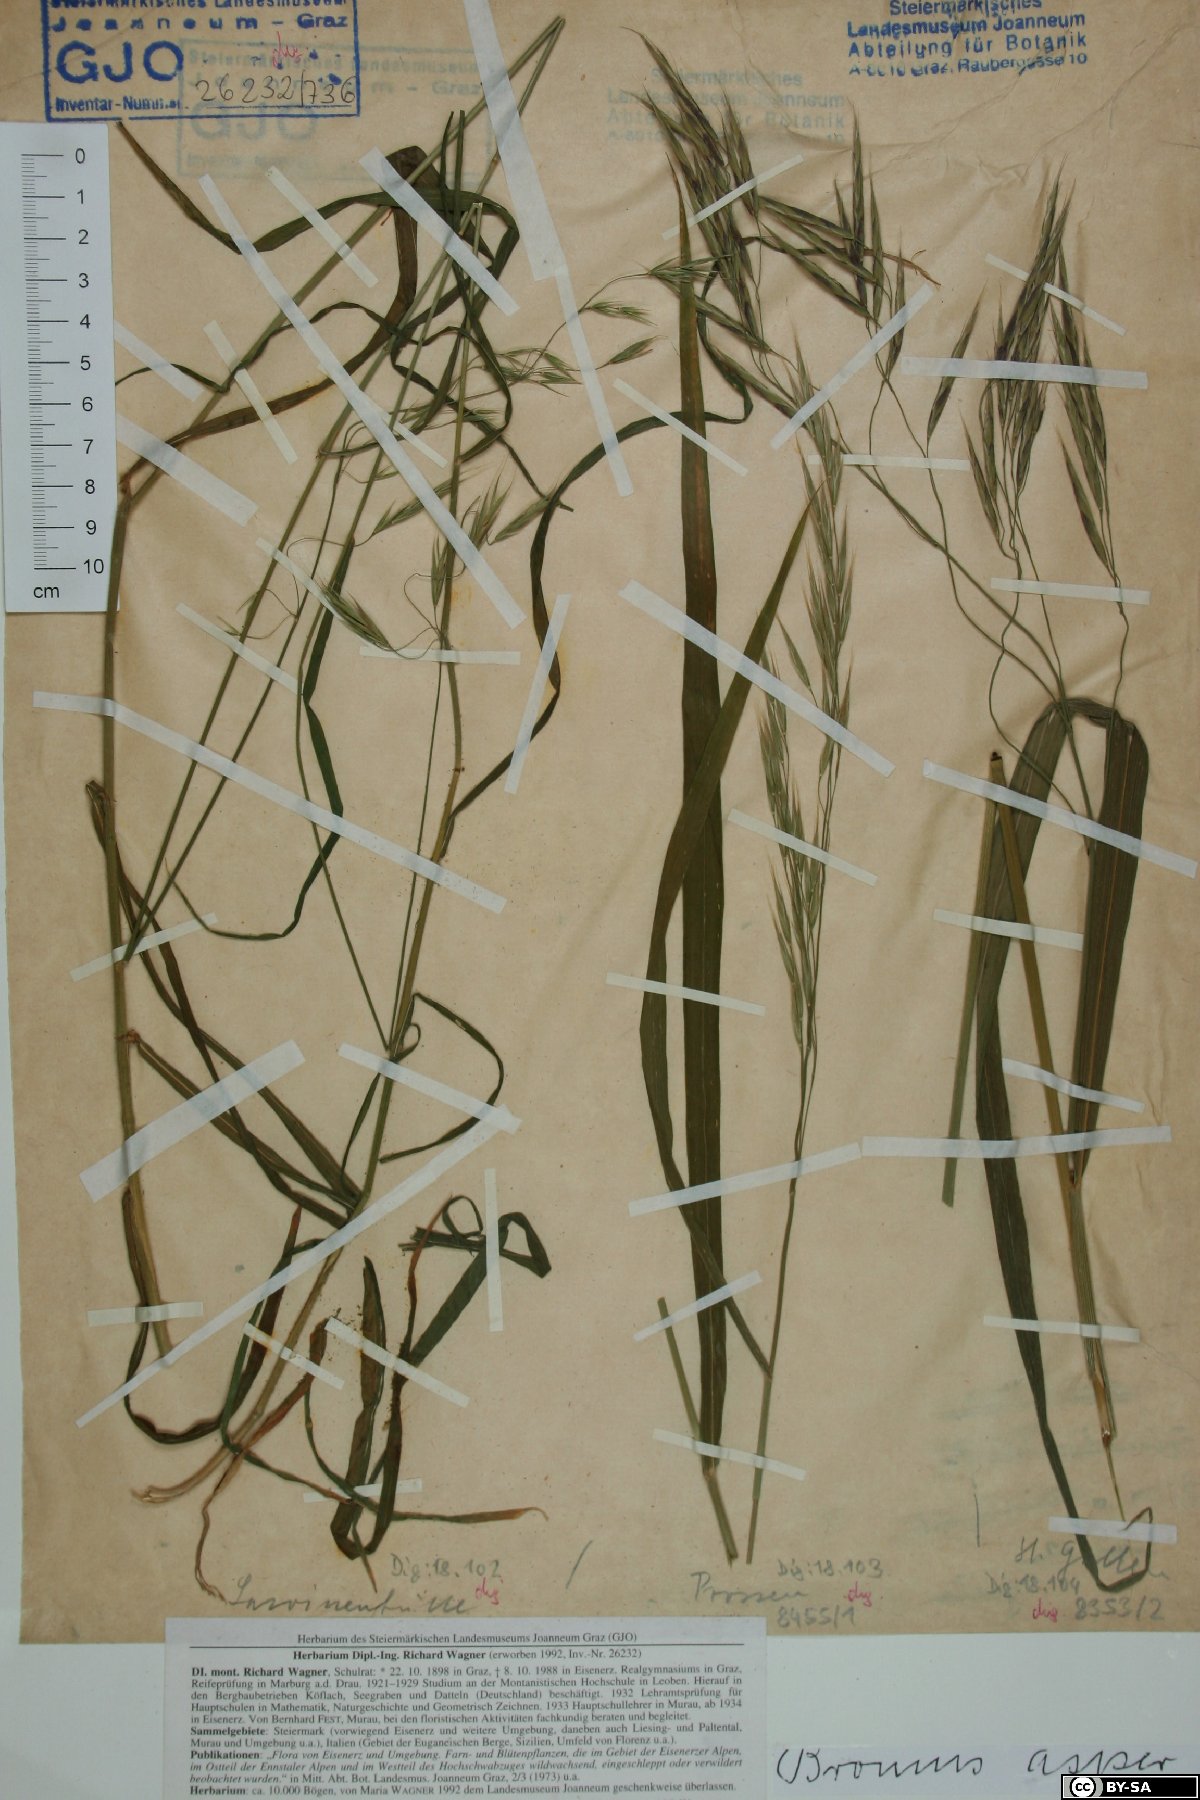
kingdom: Plantae
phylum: Tracheophyta
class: Liliopsida
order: Poales
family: Poaceae
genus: Bromus
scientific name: Bromus ramosus
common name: Hairy brome
